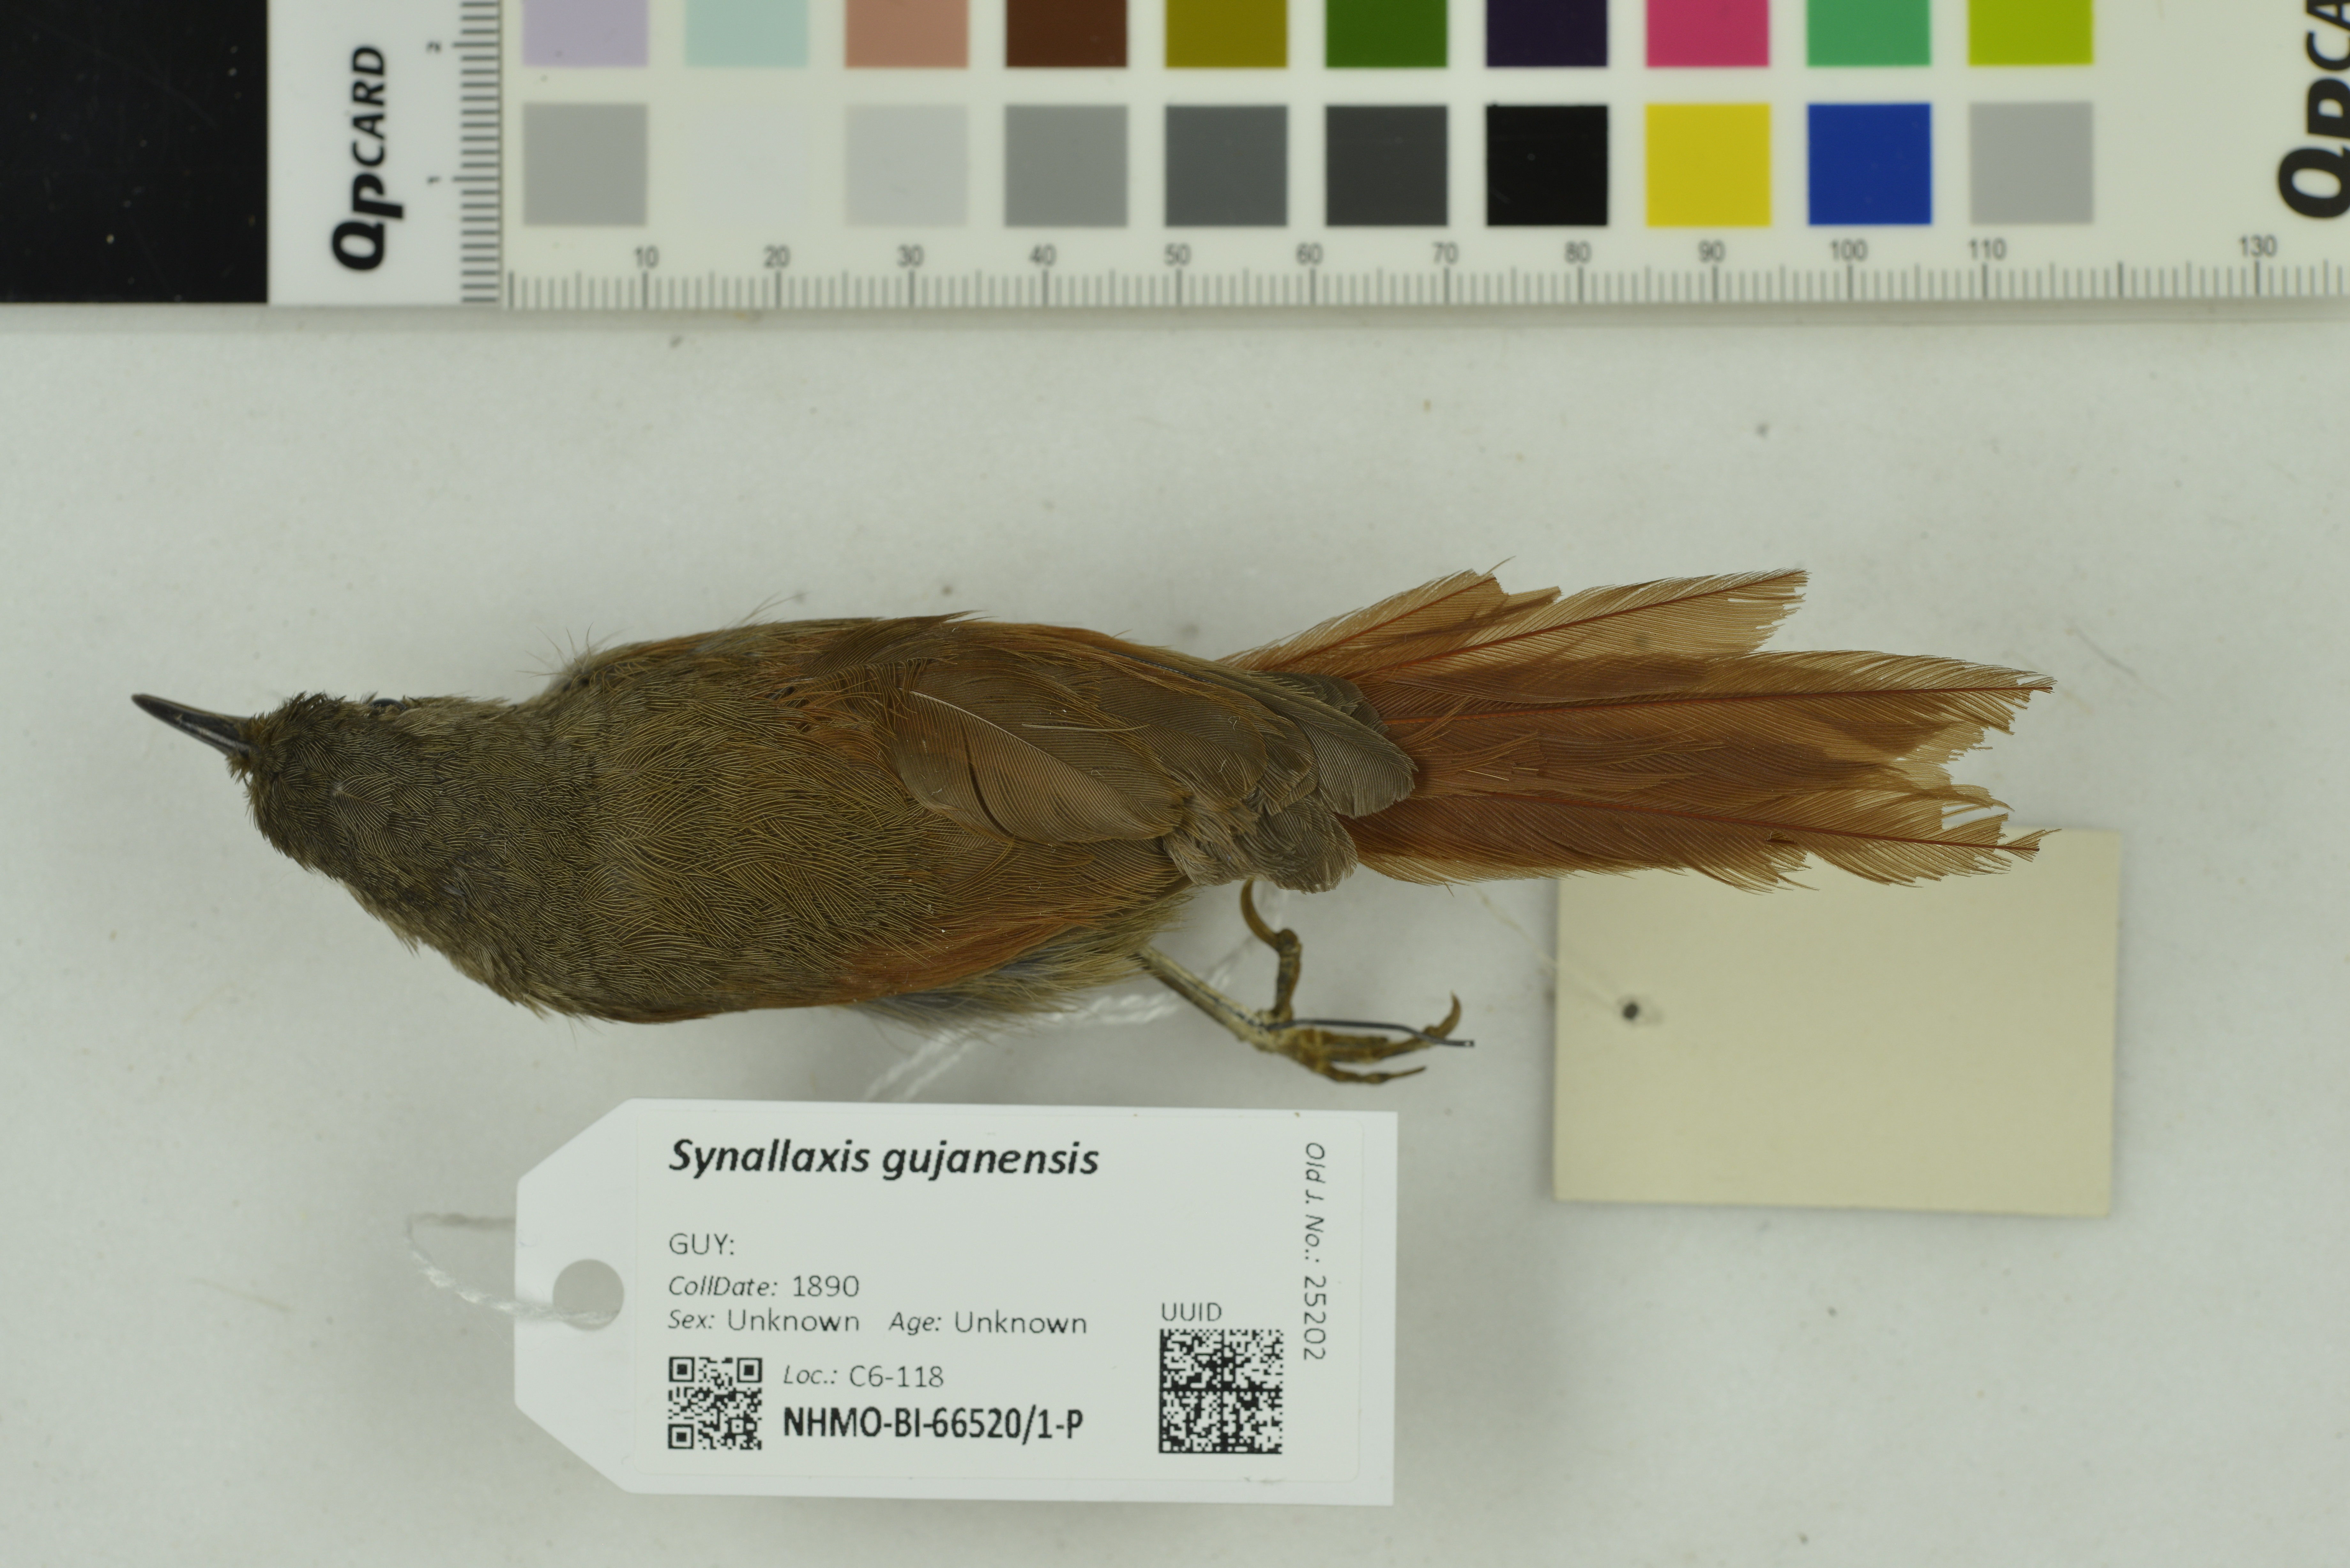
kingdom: Animalia
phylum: Chordata
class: Aves
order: Passeriformes
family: Furnariidae
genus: Synallaxis
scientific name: Synallaxis gujanensis
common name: Plain-crowned spinetail
